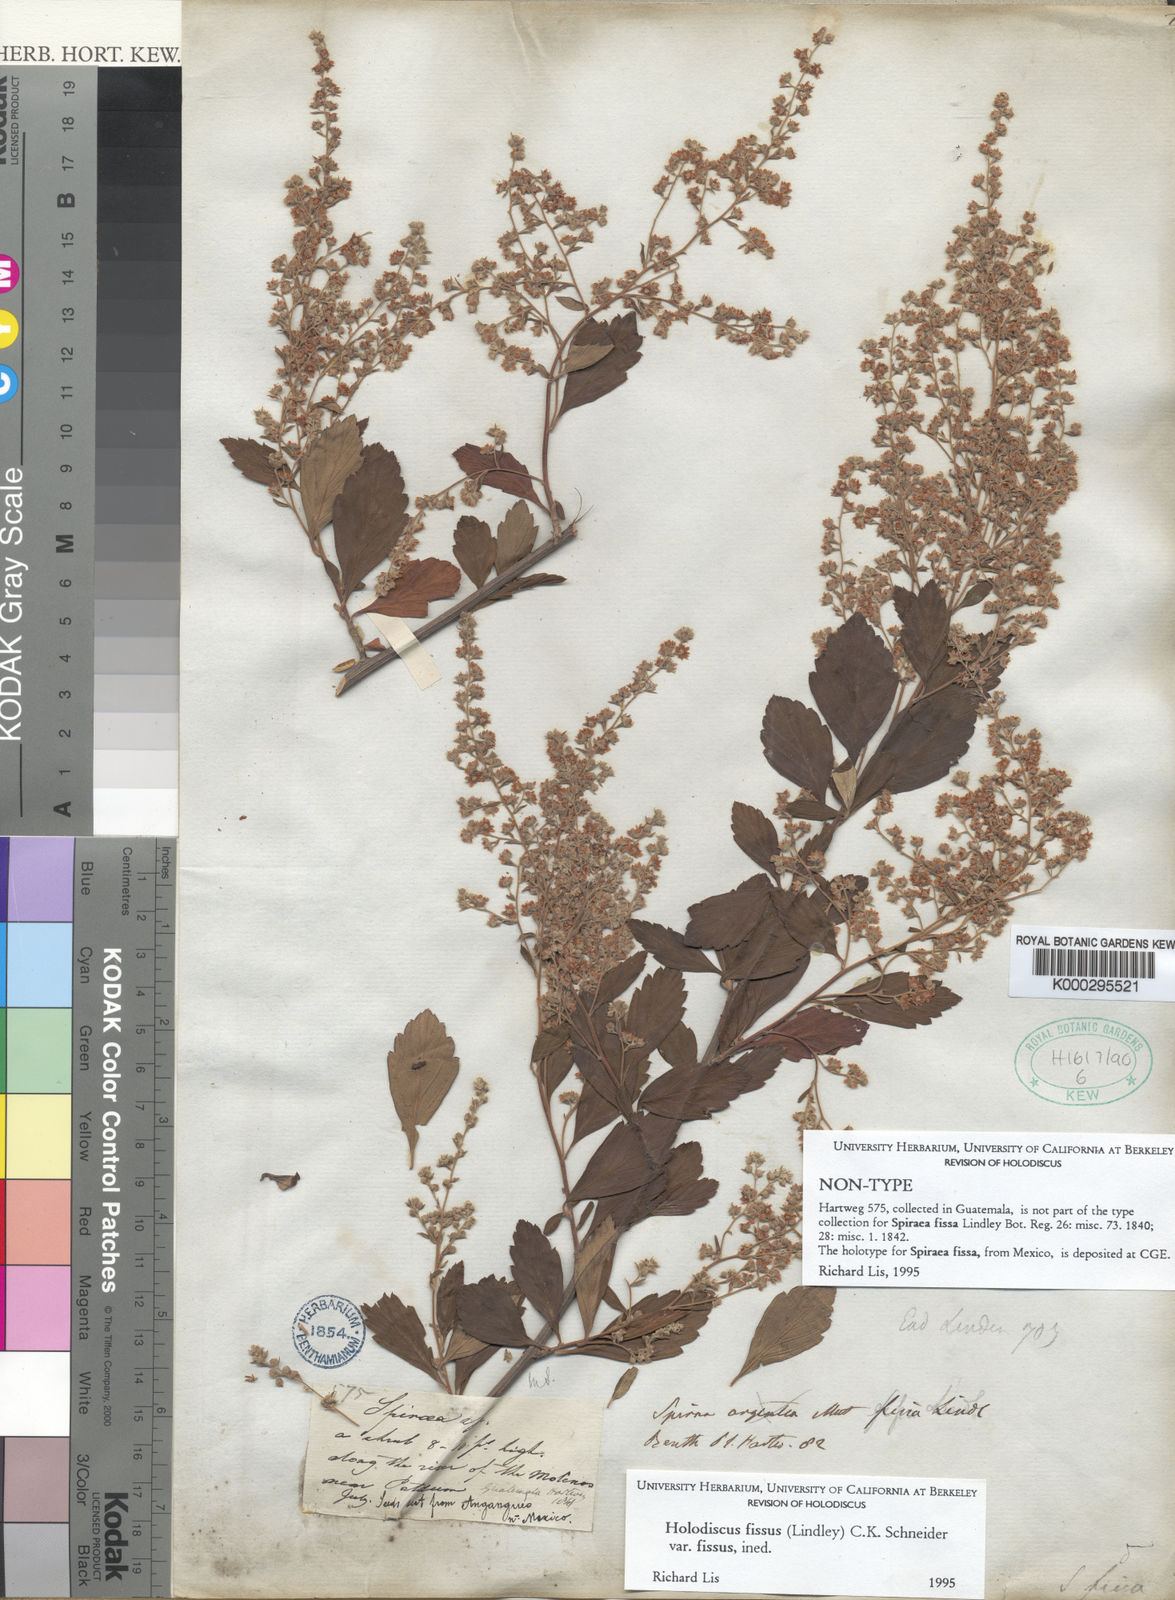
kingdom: Plantae
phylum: Tracheophyta
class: Magnoliopsida
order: Rosales
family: Rosaceae
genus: Holodiscus
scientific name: Holodiscus fissus
